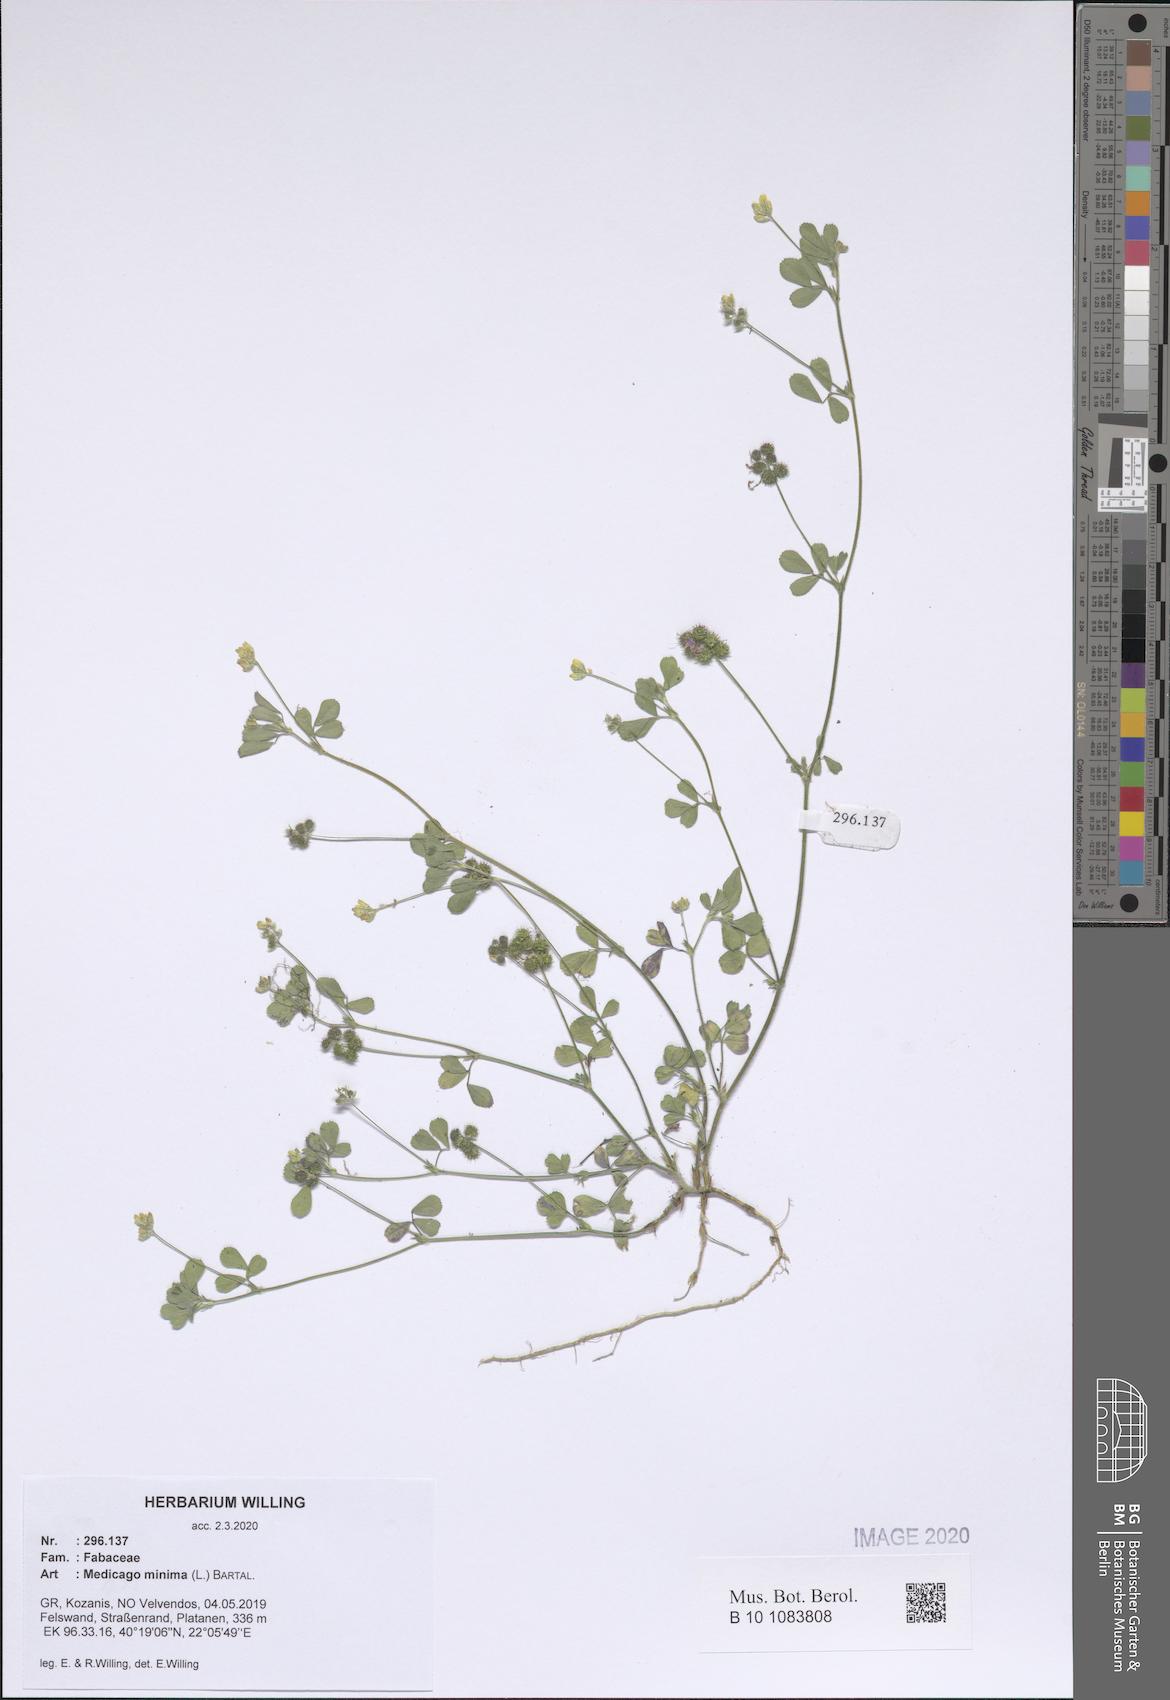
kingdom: Plantae
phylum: Tracheophyta
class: Magnoliopsida
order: Fabales
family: Fabaceae
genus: Medicago
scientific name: Medicago minima
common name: Little bur-clover
